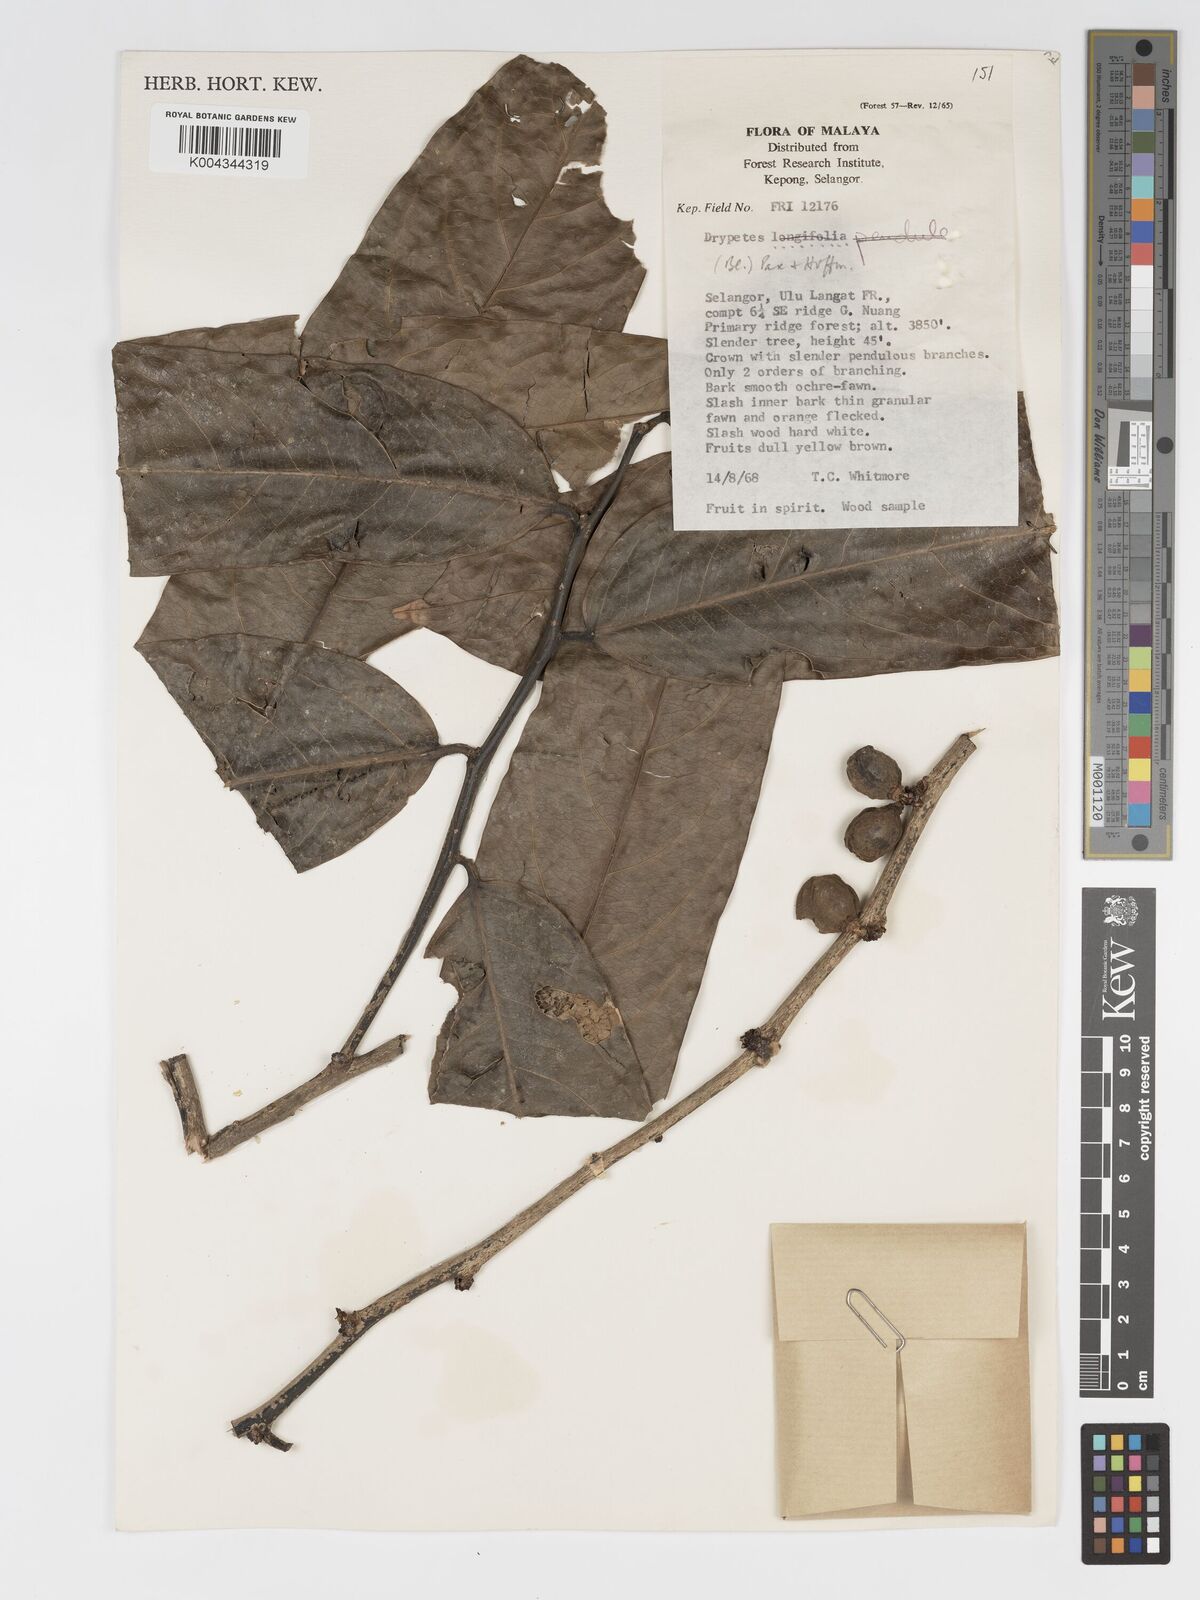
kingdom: Plantae
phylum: Tracheophyta
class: Magnoliopsida
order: Malpighiales
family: Putranjivaceae
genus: Drypetes
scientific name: Drypetes longifolia
